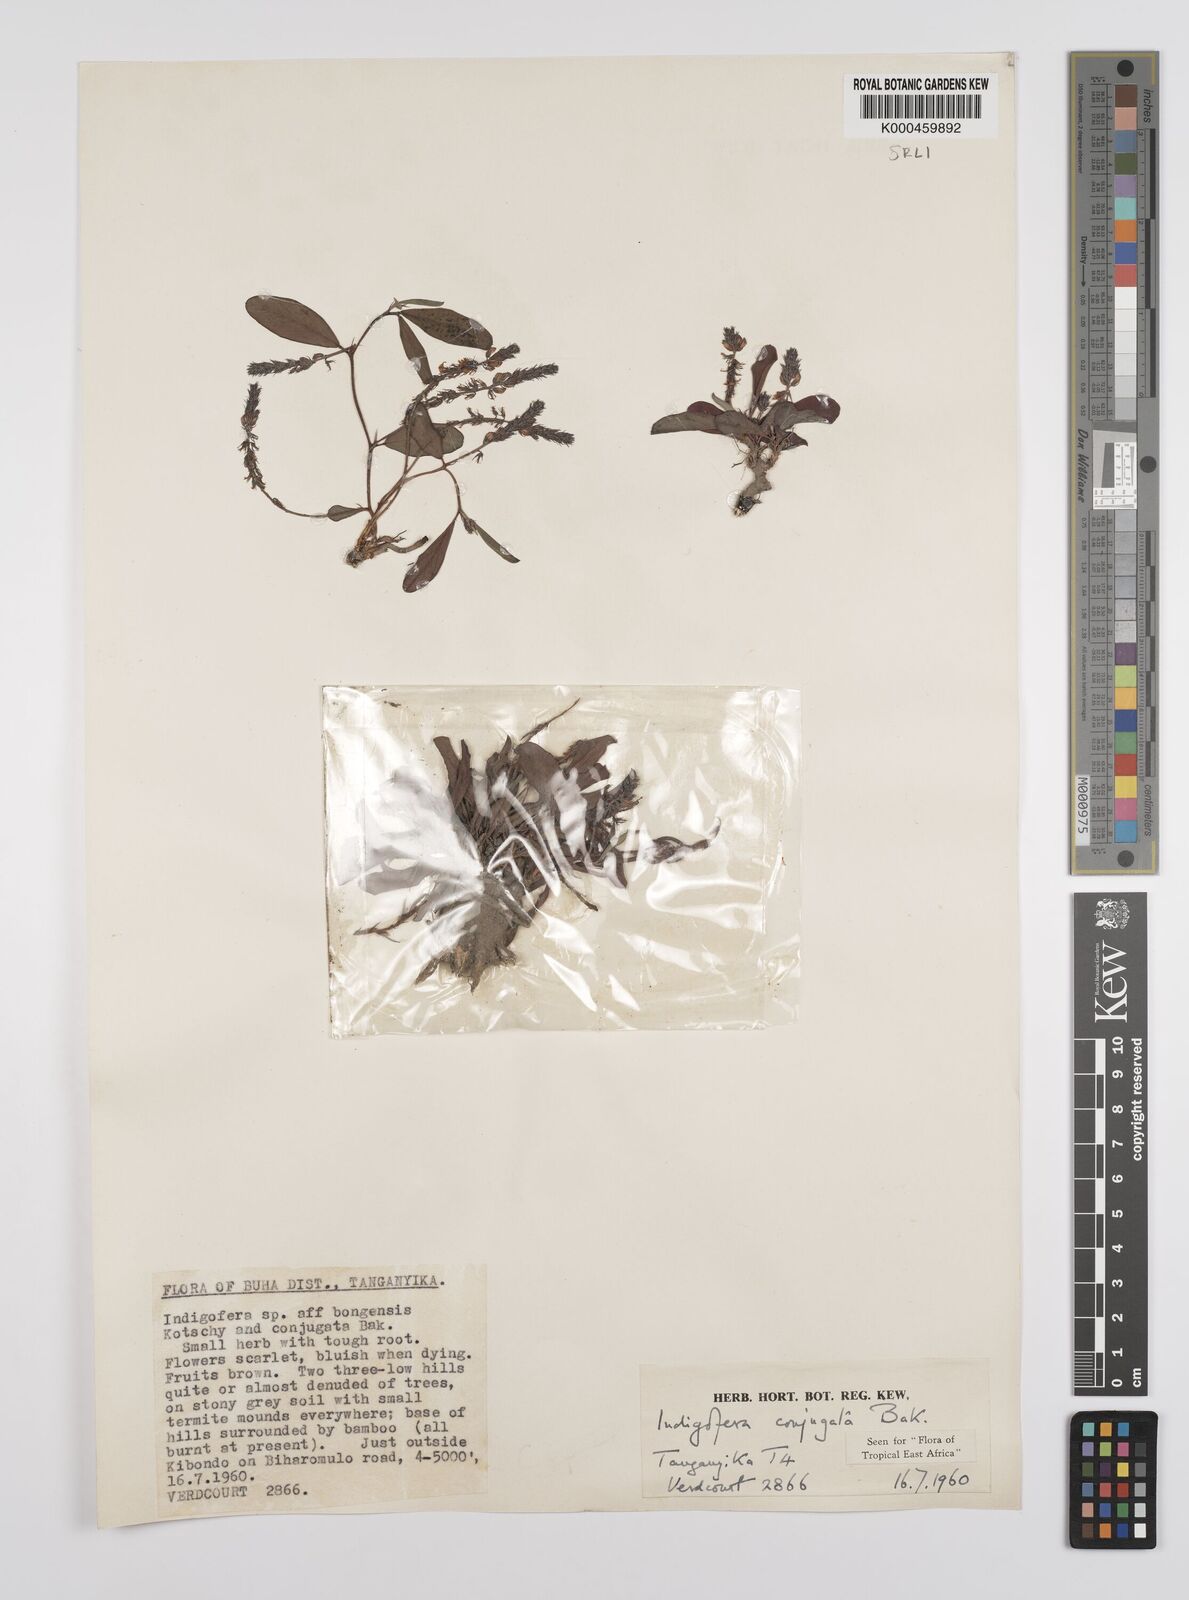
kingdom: Plantae
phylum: Tracheophyta
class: Magnoliopsida
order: Fabales
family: Fabaceae
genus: Indigofera
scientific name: Indigofera conjugata
